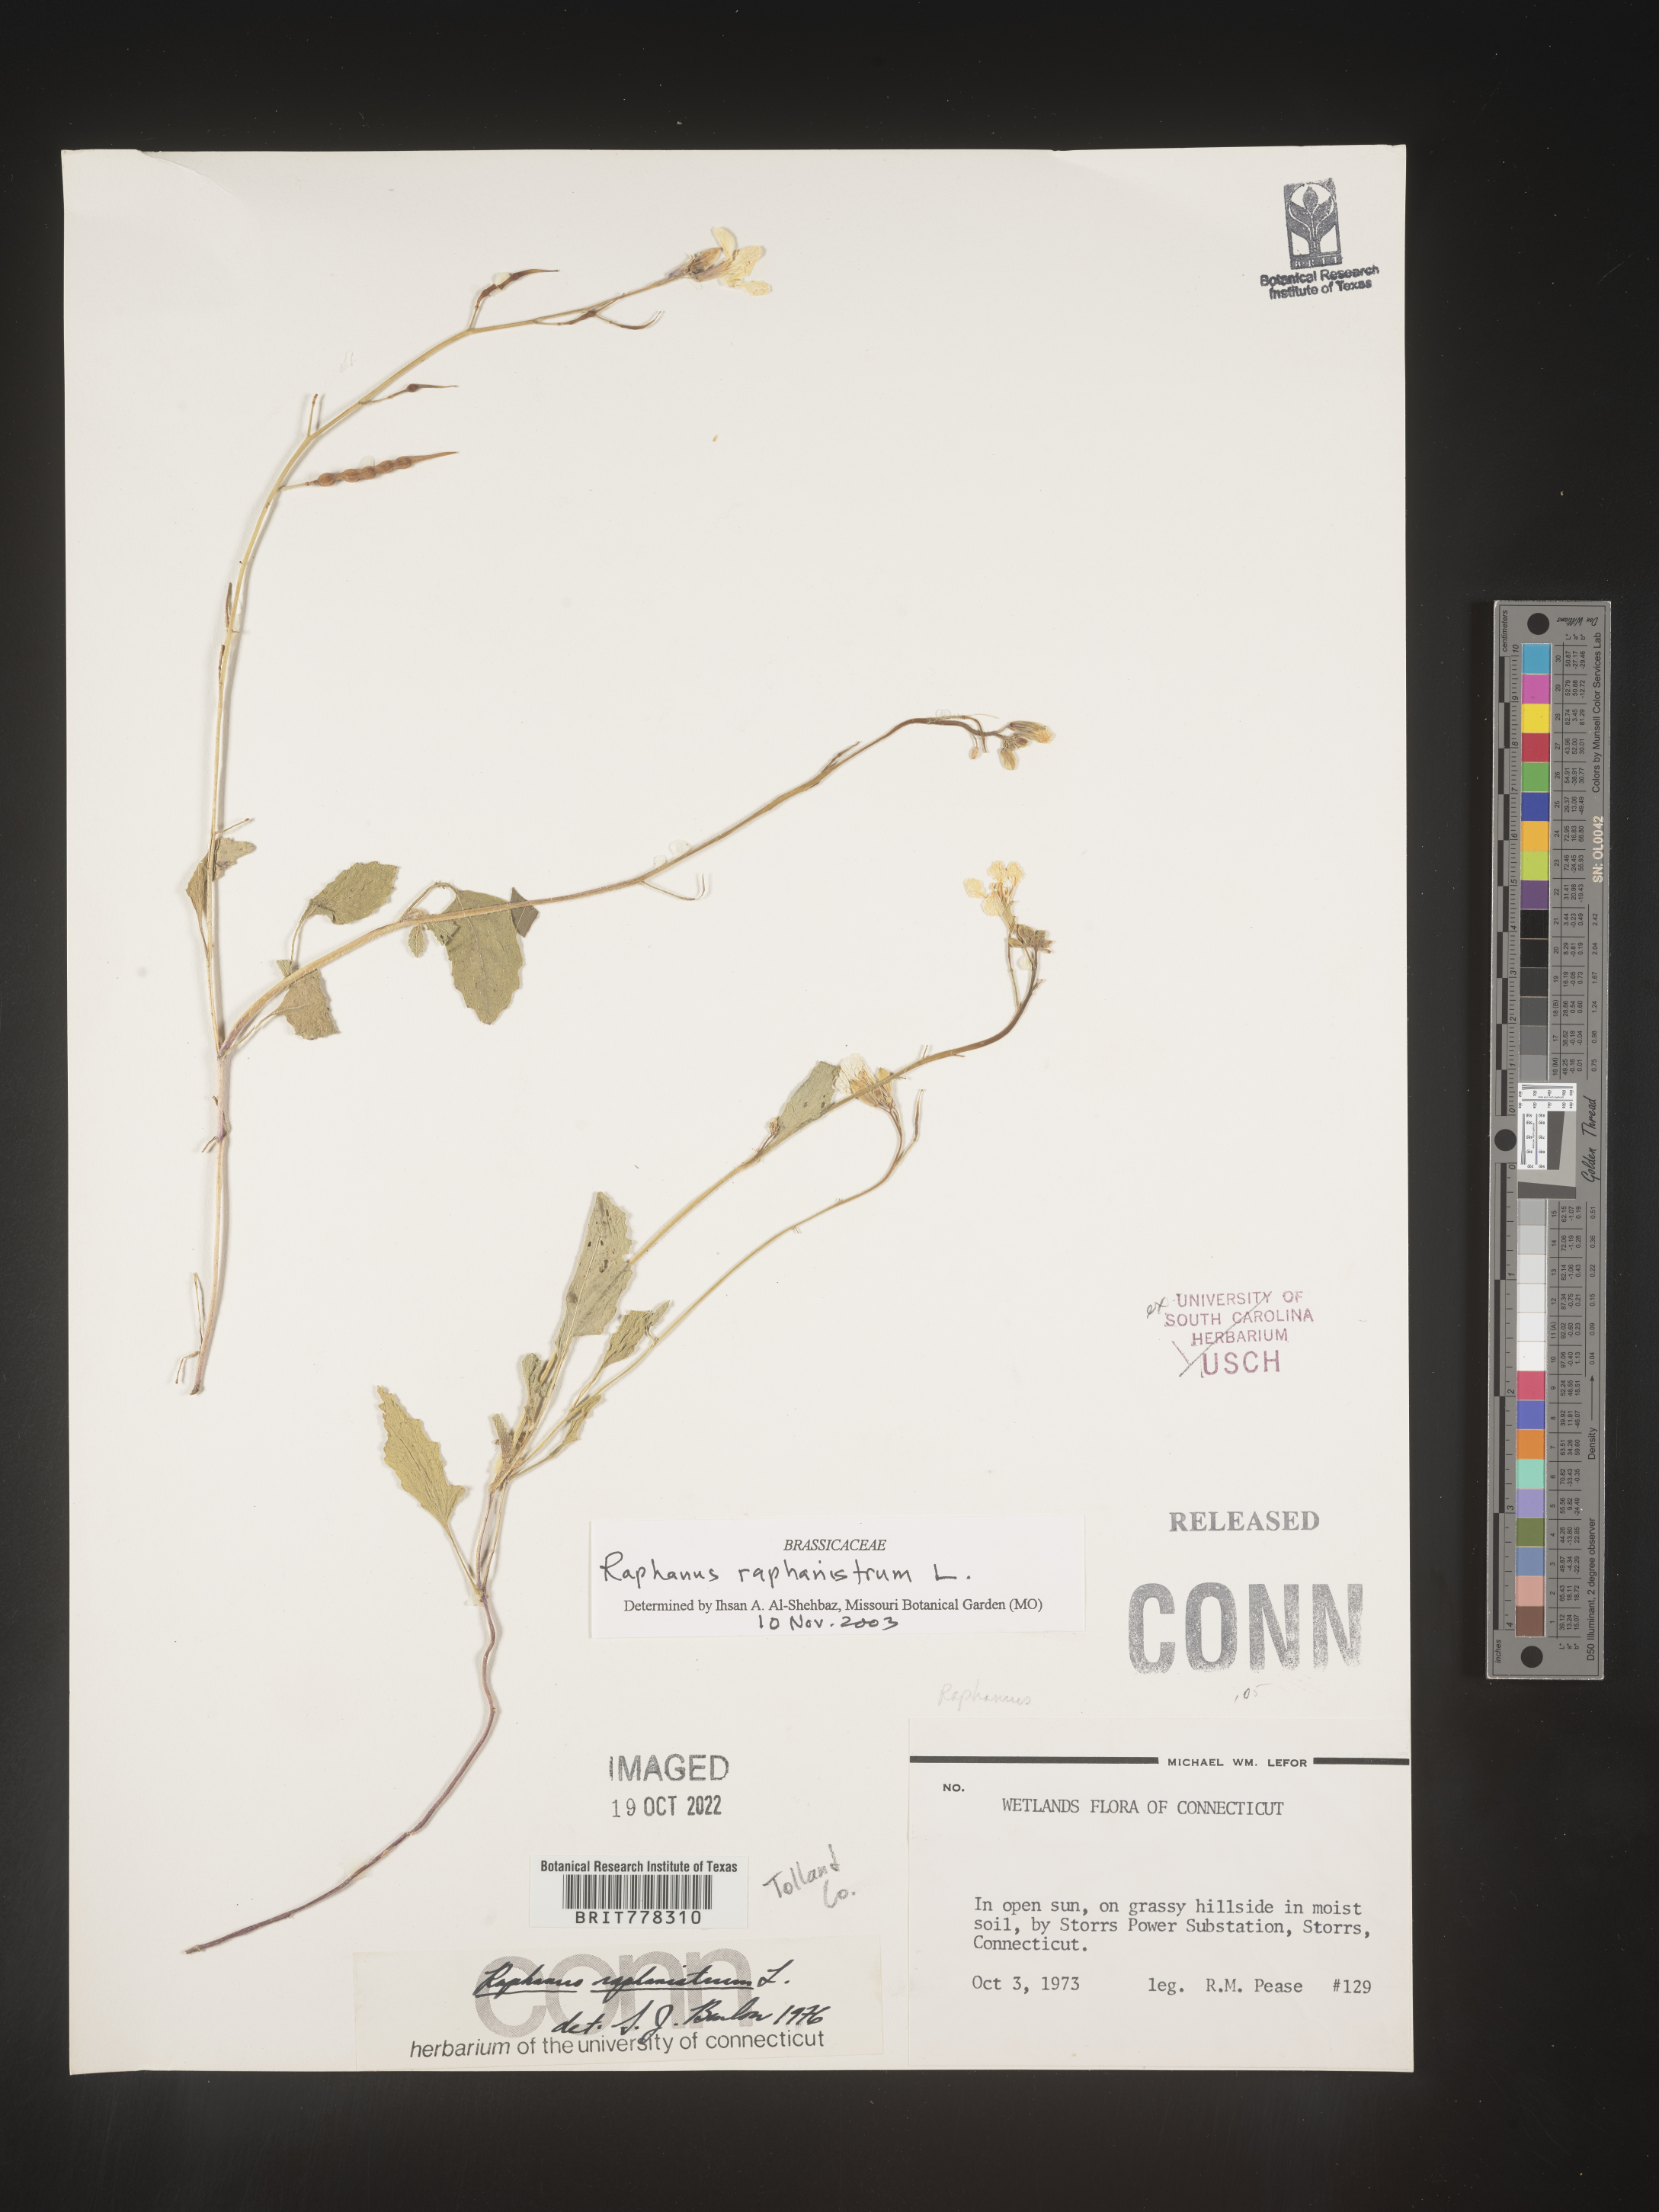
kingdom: Plantae
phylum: Tracheophyta
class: Magnoliopsida
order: Brassicales
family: Brassicaceae
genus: Raphanus
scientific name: Raphanus raphanistrum
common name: Wild radish
